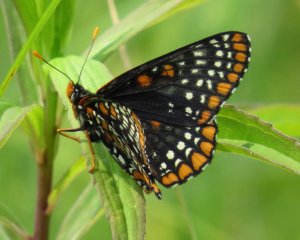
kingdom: Animalia
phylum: Arthropoda
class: Insecta
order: Lepidoptera
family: Nymphalidae
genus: Euphydryas
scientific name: Euphydryas phaeton
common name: Baltimore Checkerspot
